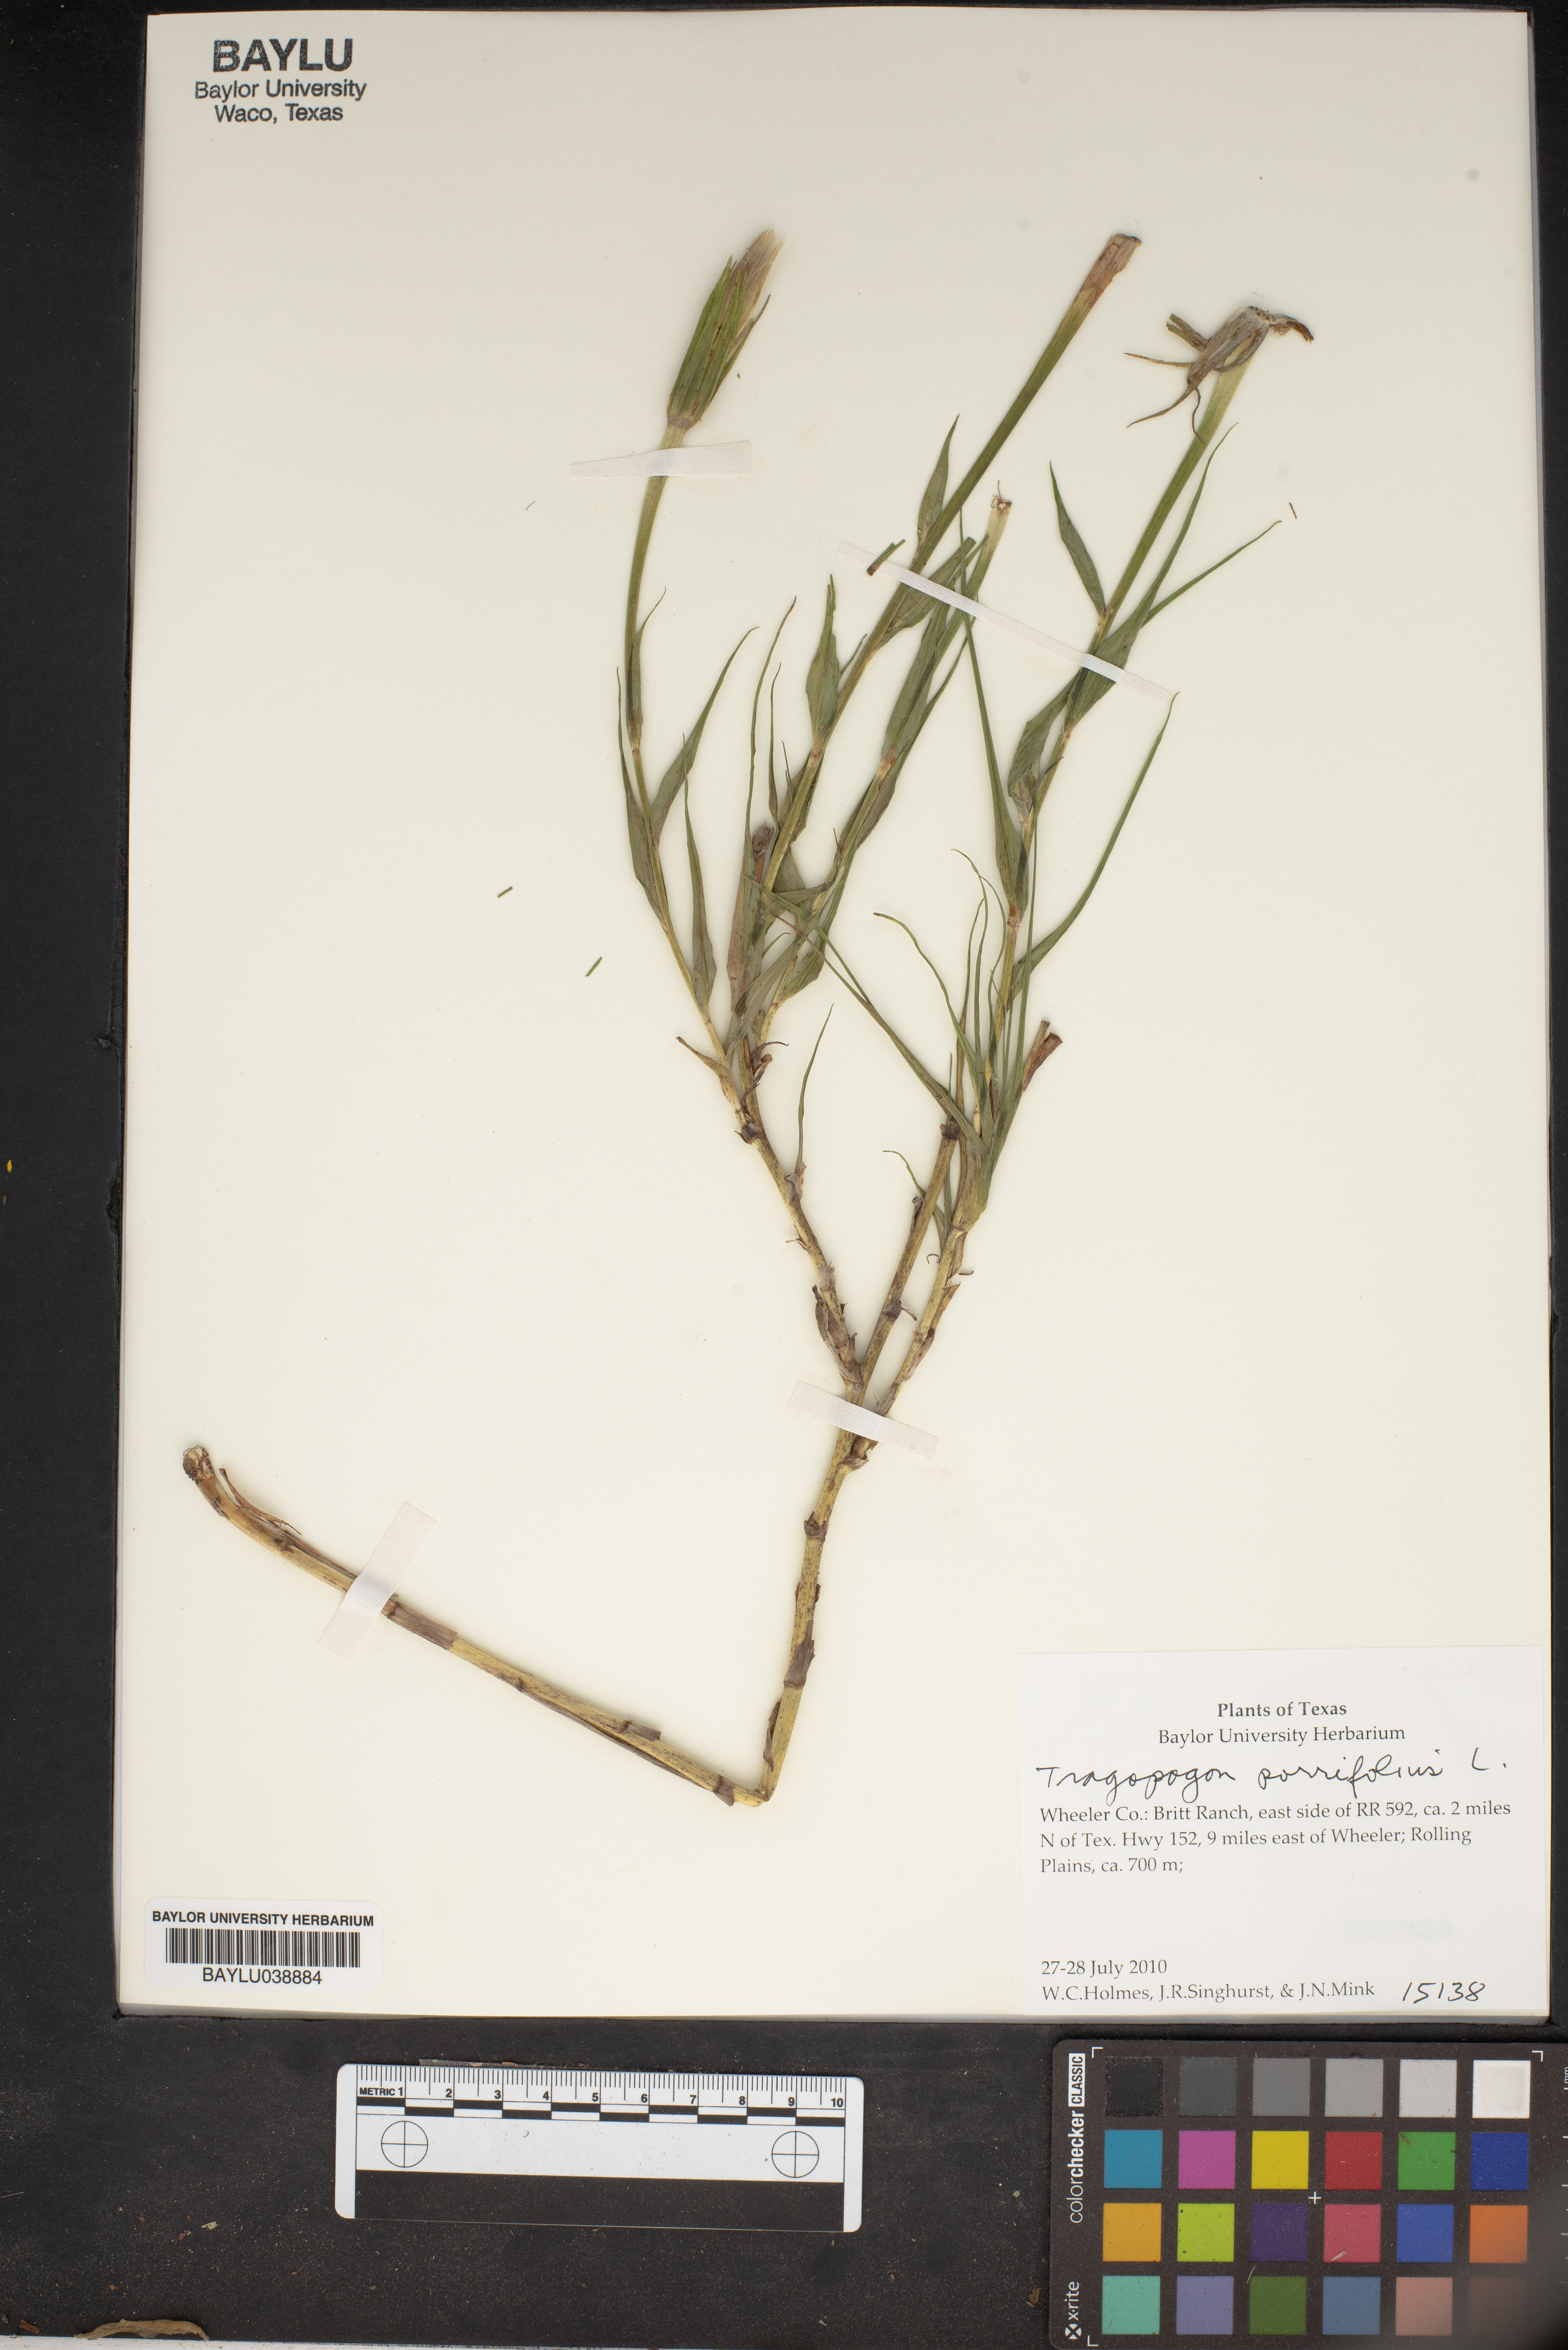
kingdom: Plantae
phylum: Tracheophyta
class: Magnoliopsida
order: Asterales
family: Asteraceae
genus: Tragopogon
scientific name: Tragopogon porrifolius
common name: Salsify
